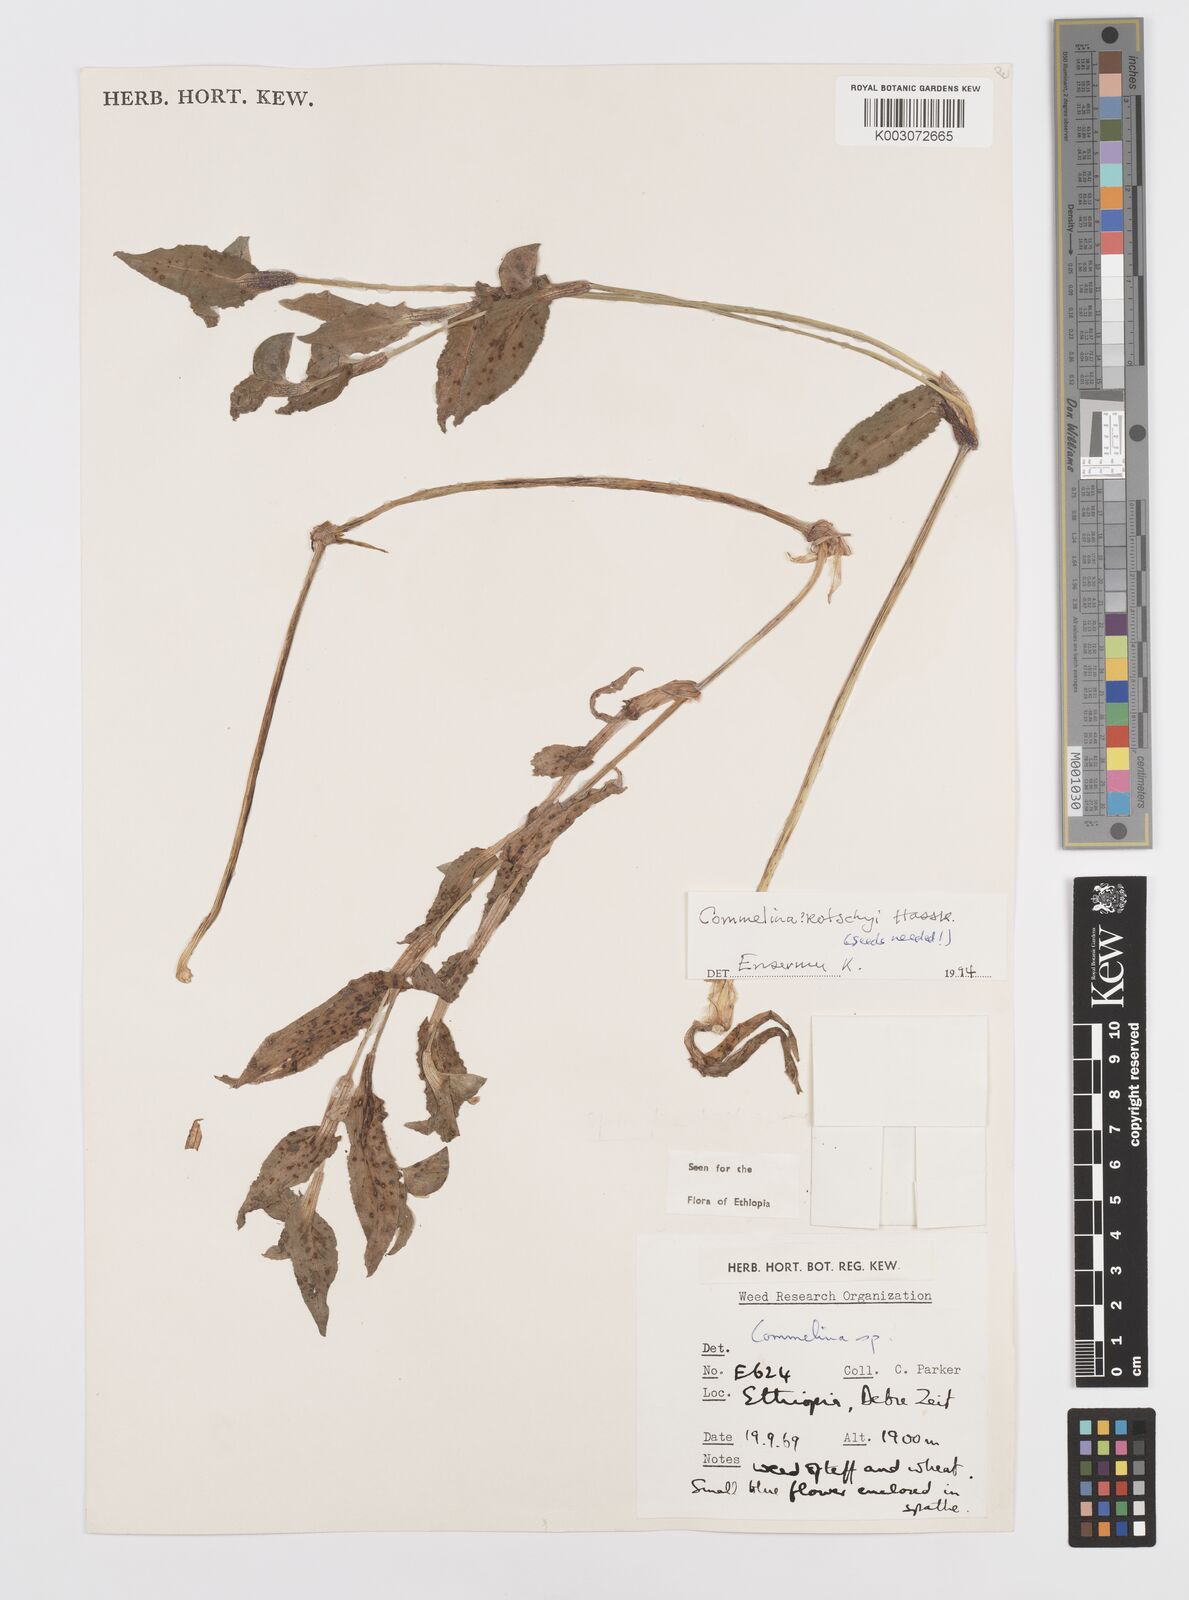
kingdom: Plantae
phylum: Tracheophyta
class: Liliopsida
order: Commelinales
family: Commelinaceae
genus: Commelina
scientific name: Commelina kotschyi
